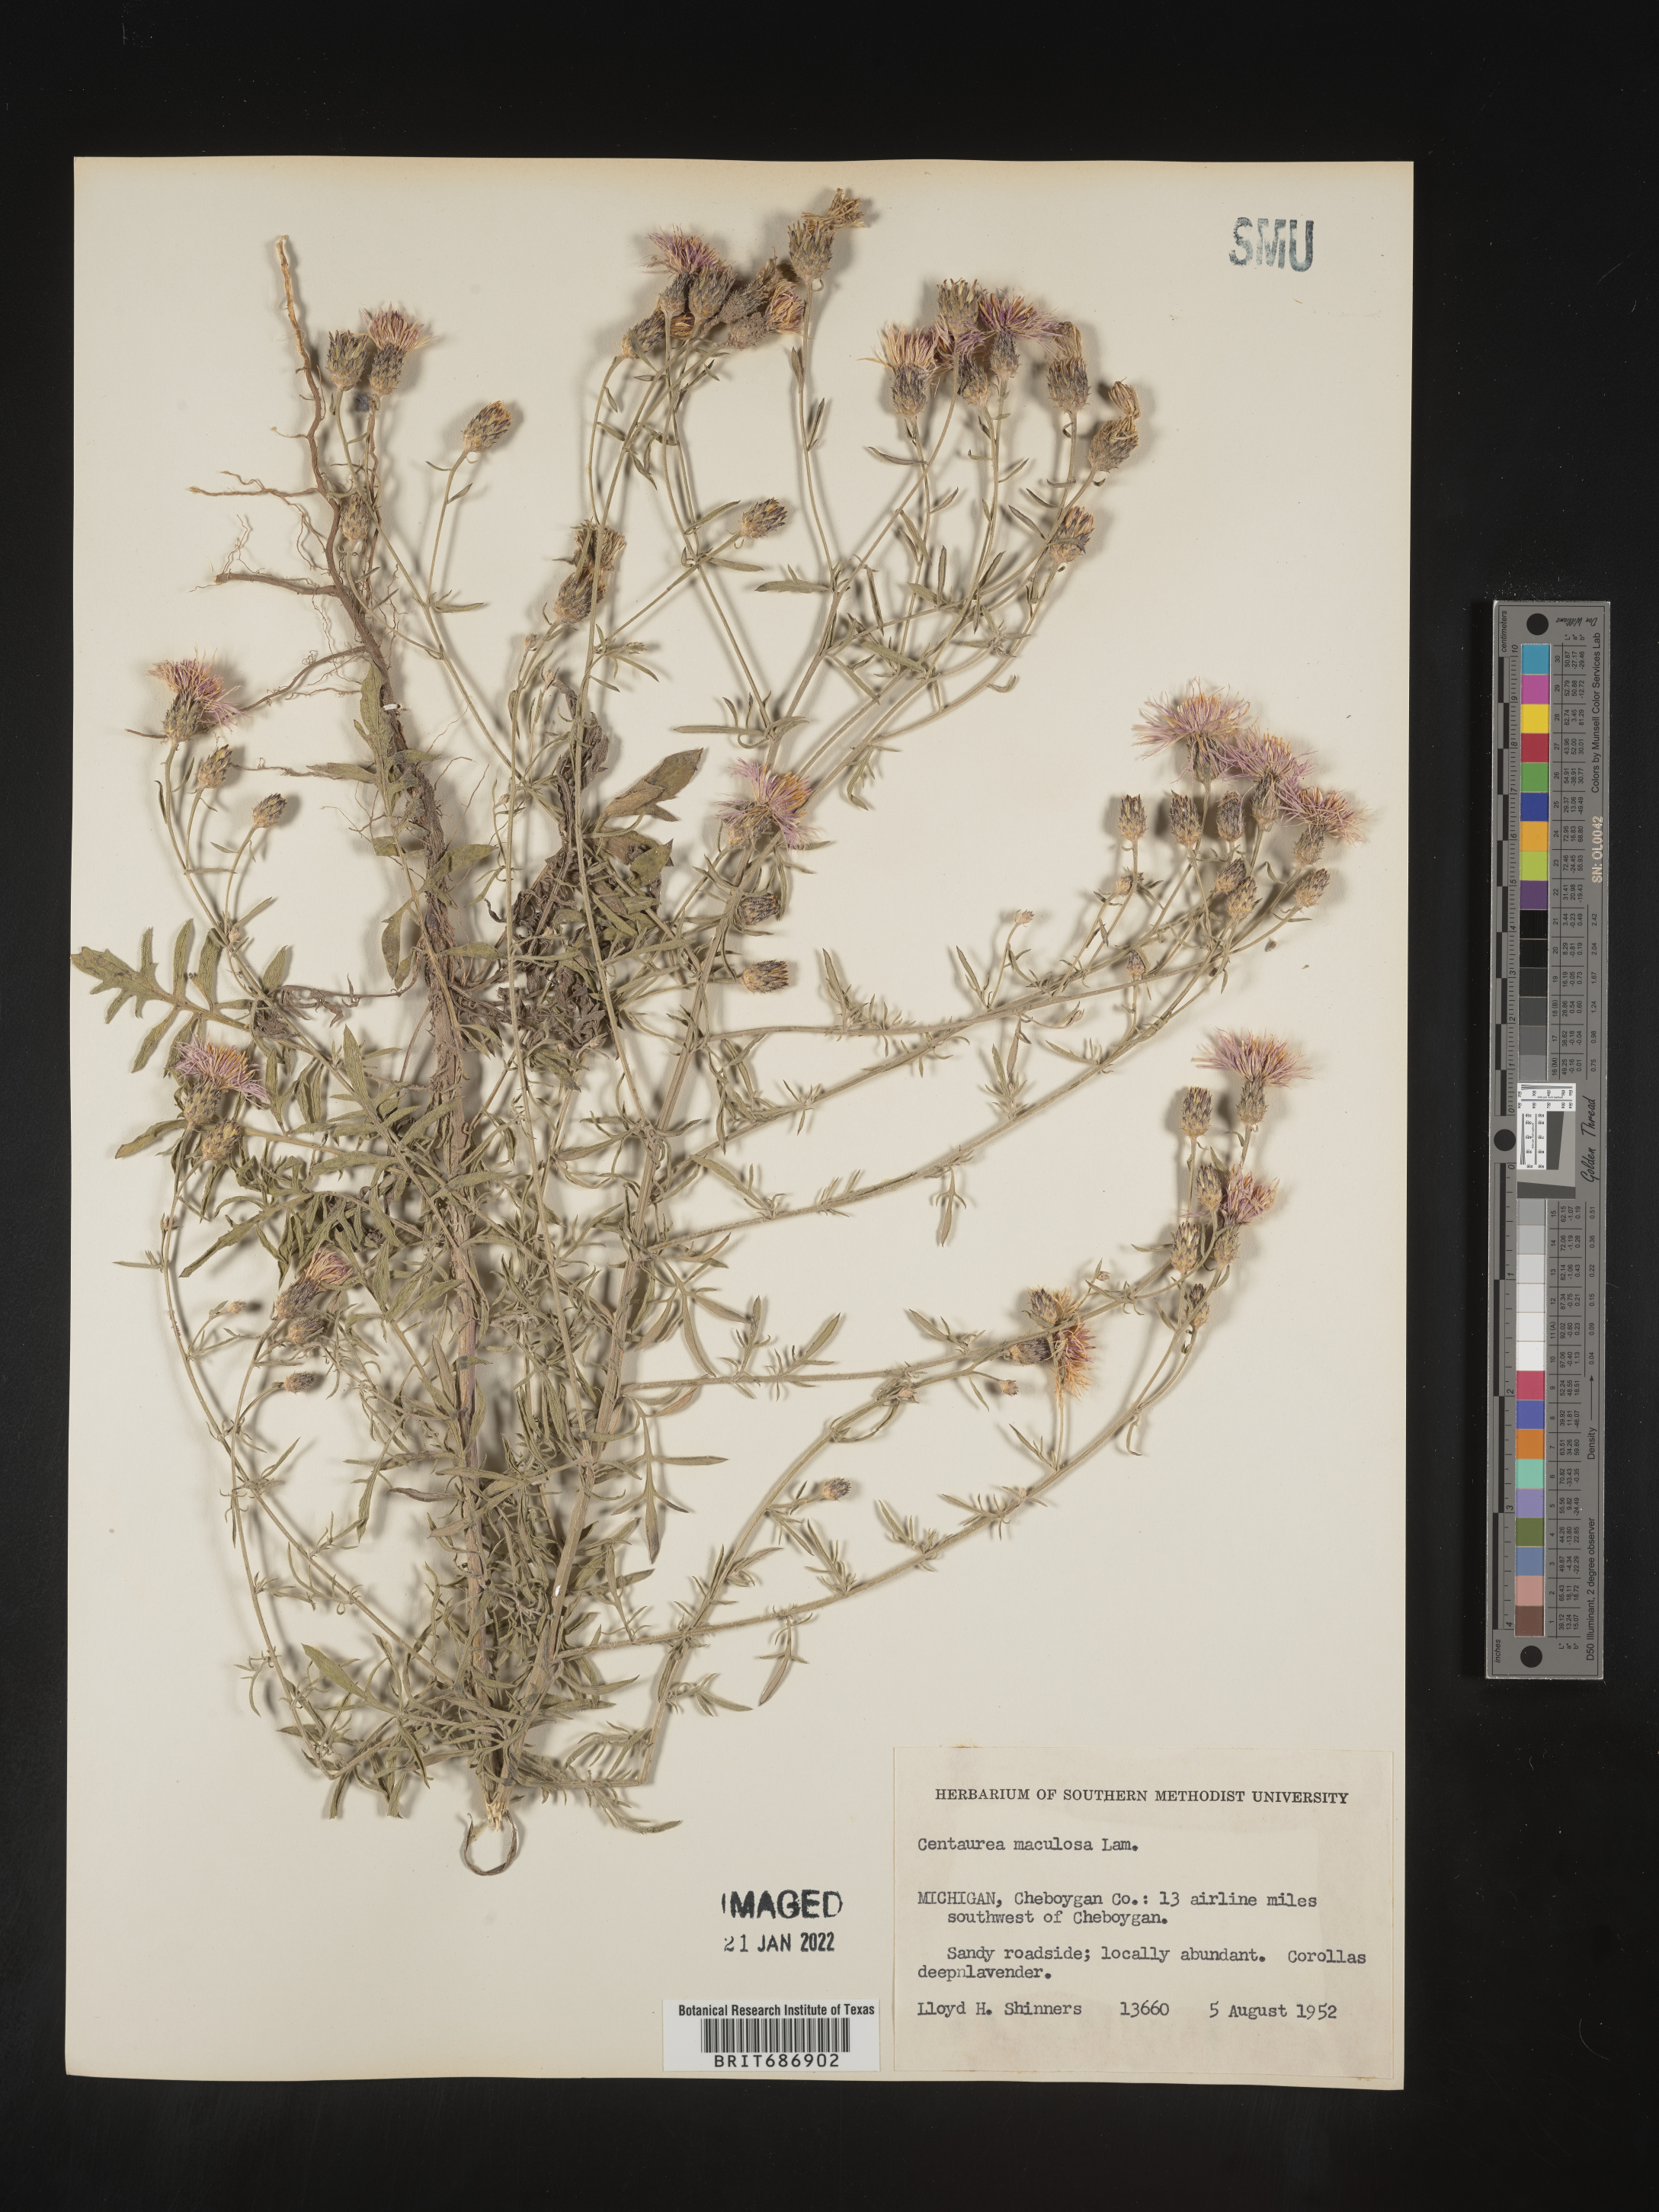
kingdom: Plantae
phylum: Tracheophyta
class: Magnoliopsida
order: Asterales
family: Asteraceae
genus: Centaurea
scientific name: Centaurea stoebe
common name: Spotted knapweed
